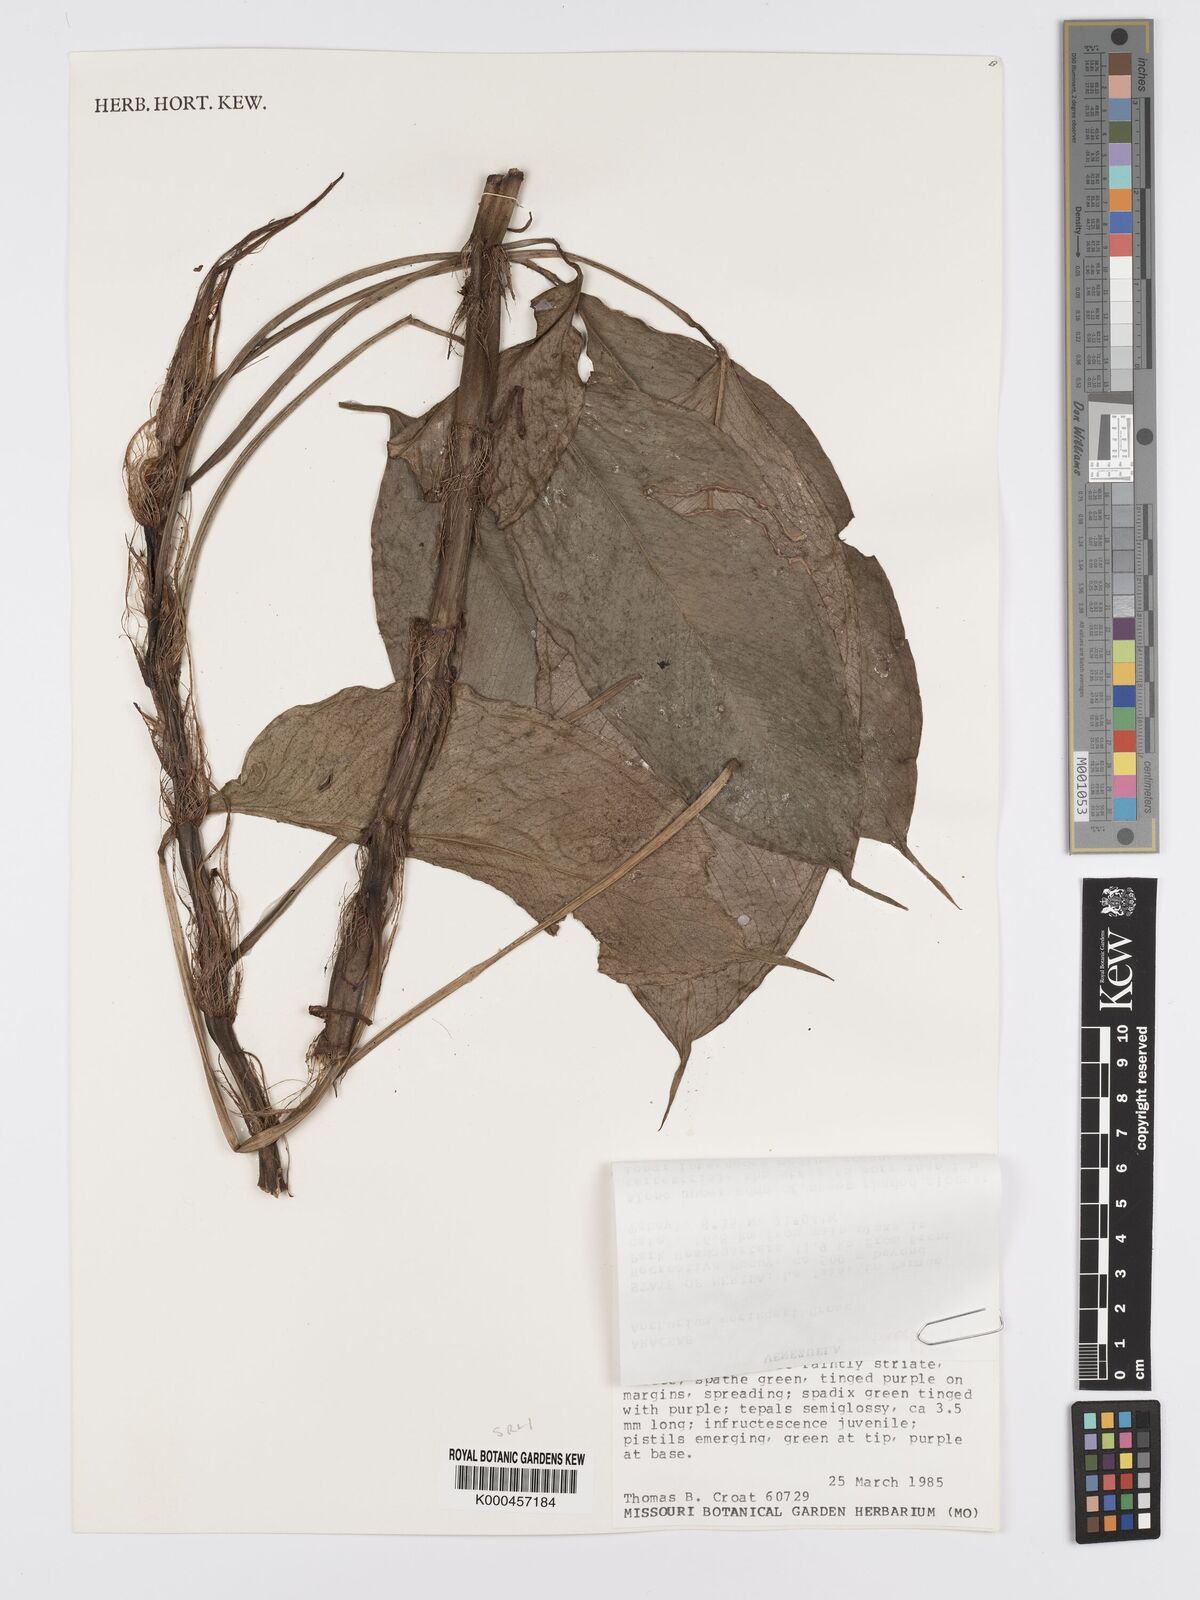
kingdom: Plantae
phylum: Tracheophyta
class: Liliopsida
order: Alismatales
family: Araceae
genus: Anthurium
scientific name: Anthurium gehrigeri
